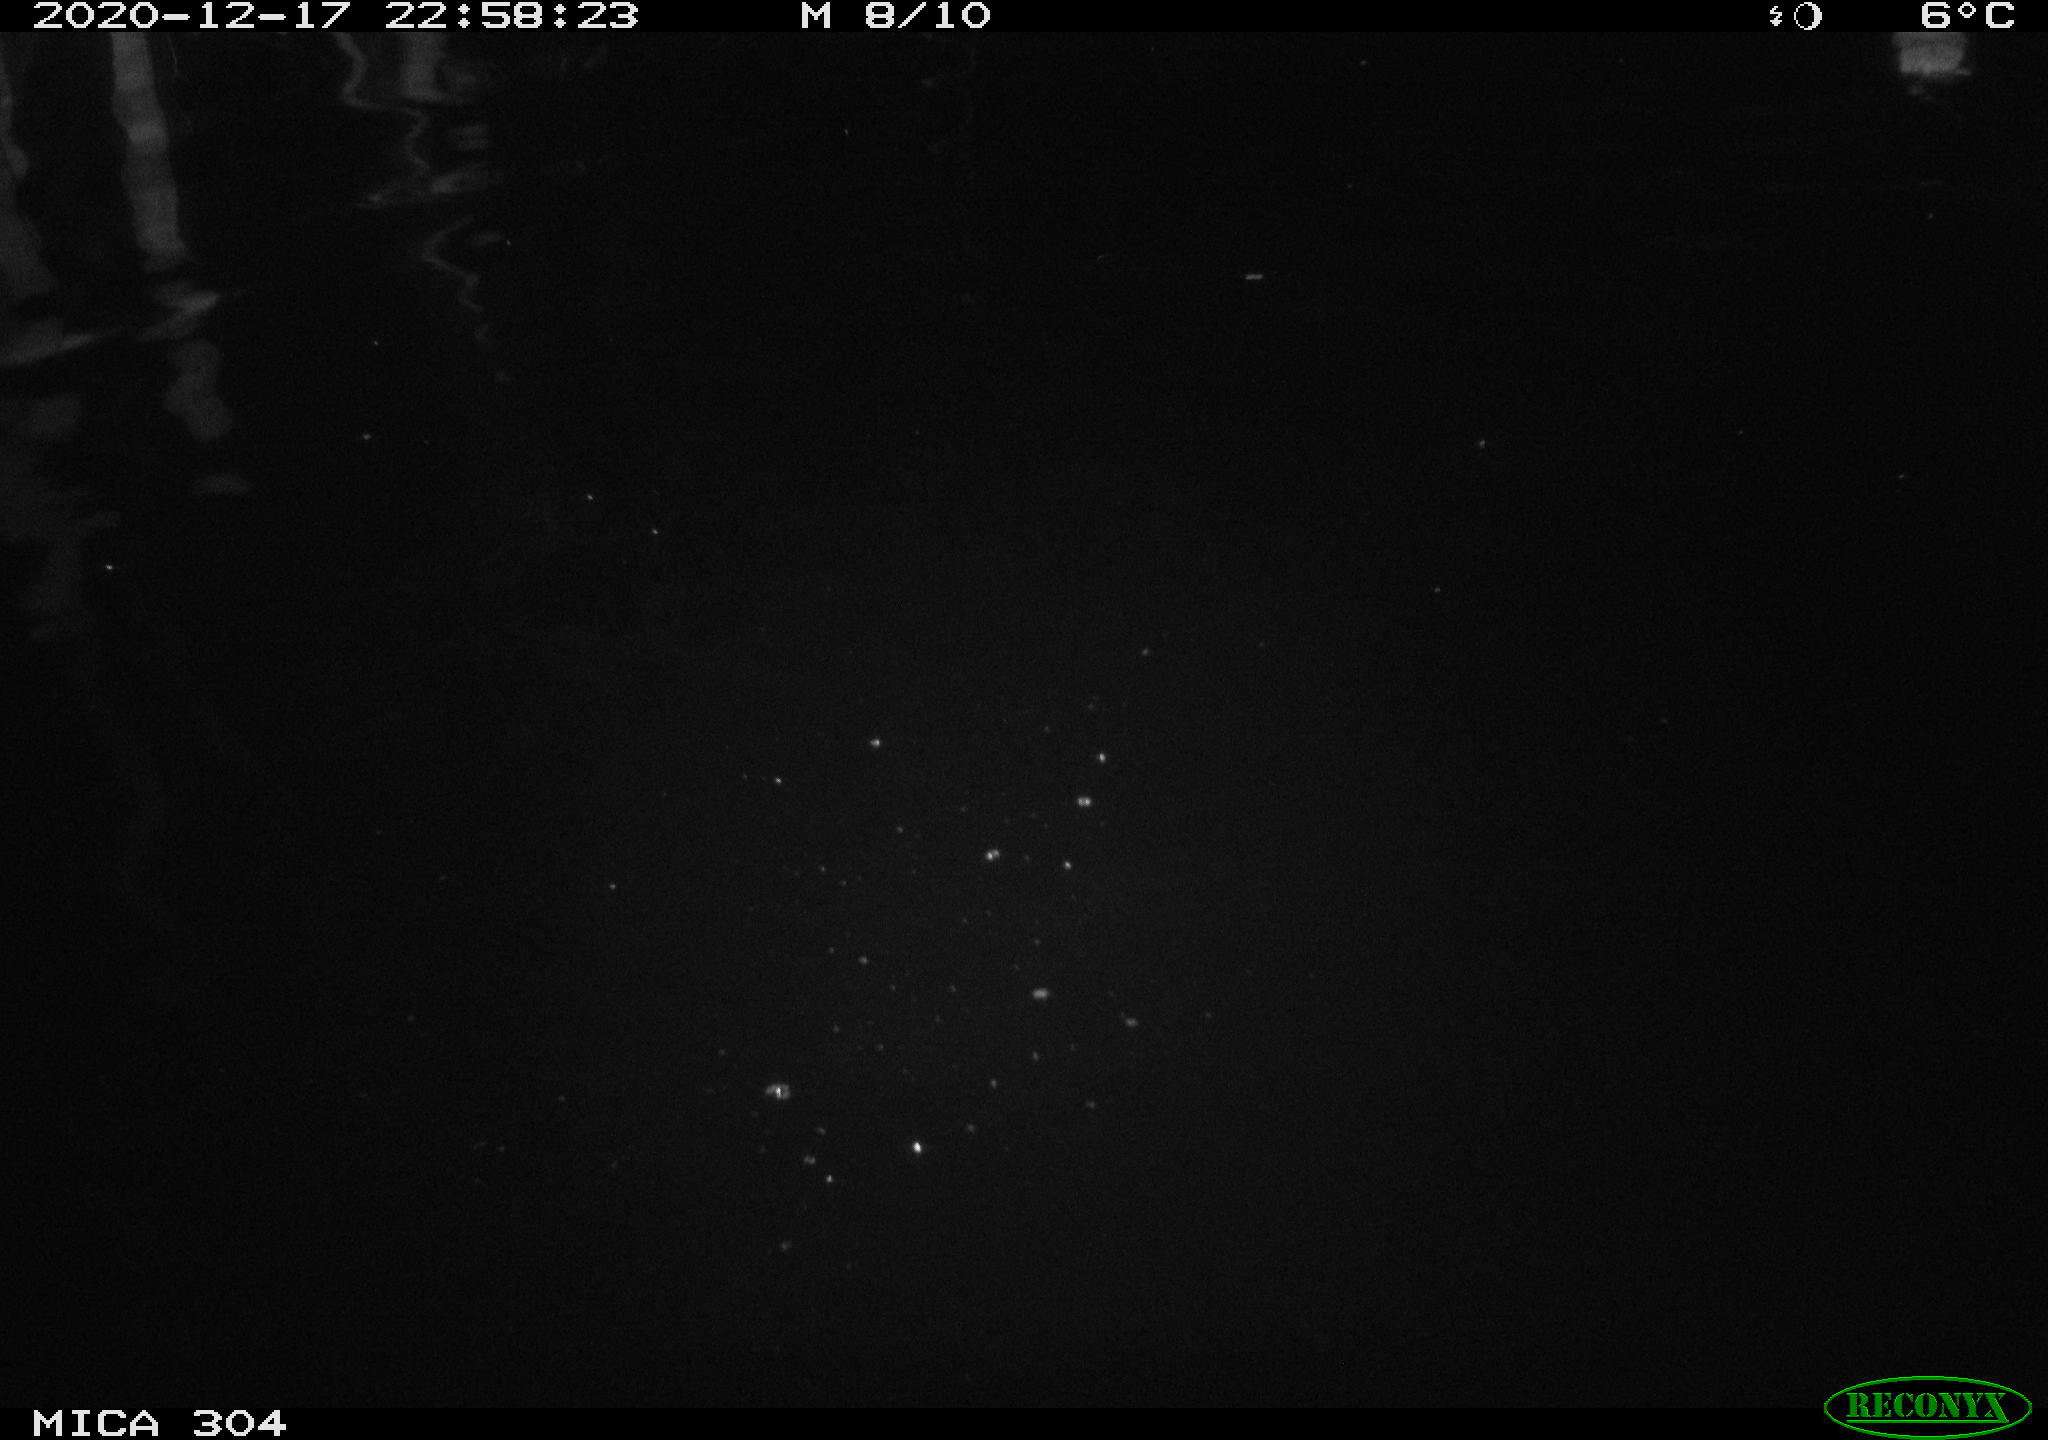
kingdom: Animalia
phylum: Chordata
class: Mammalia
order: Rodentia
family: Muridae
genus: Rattus
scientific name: Rattus norvegicus
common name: Brown rat
